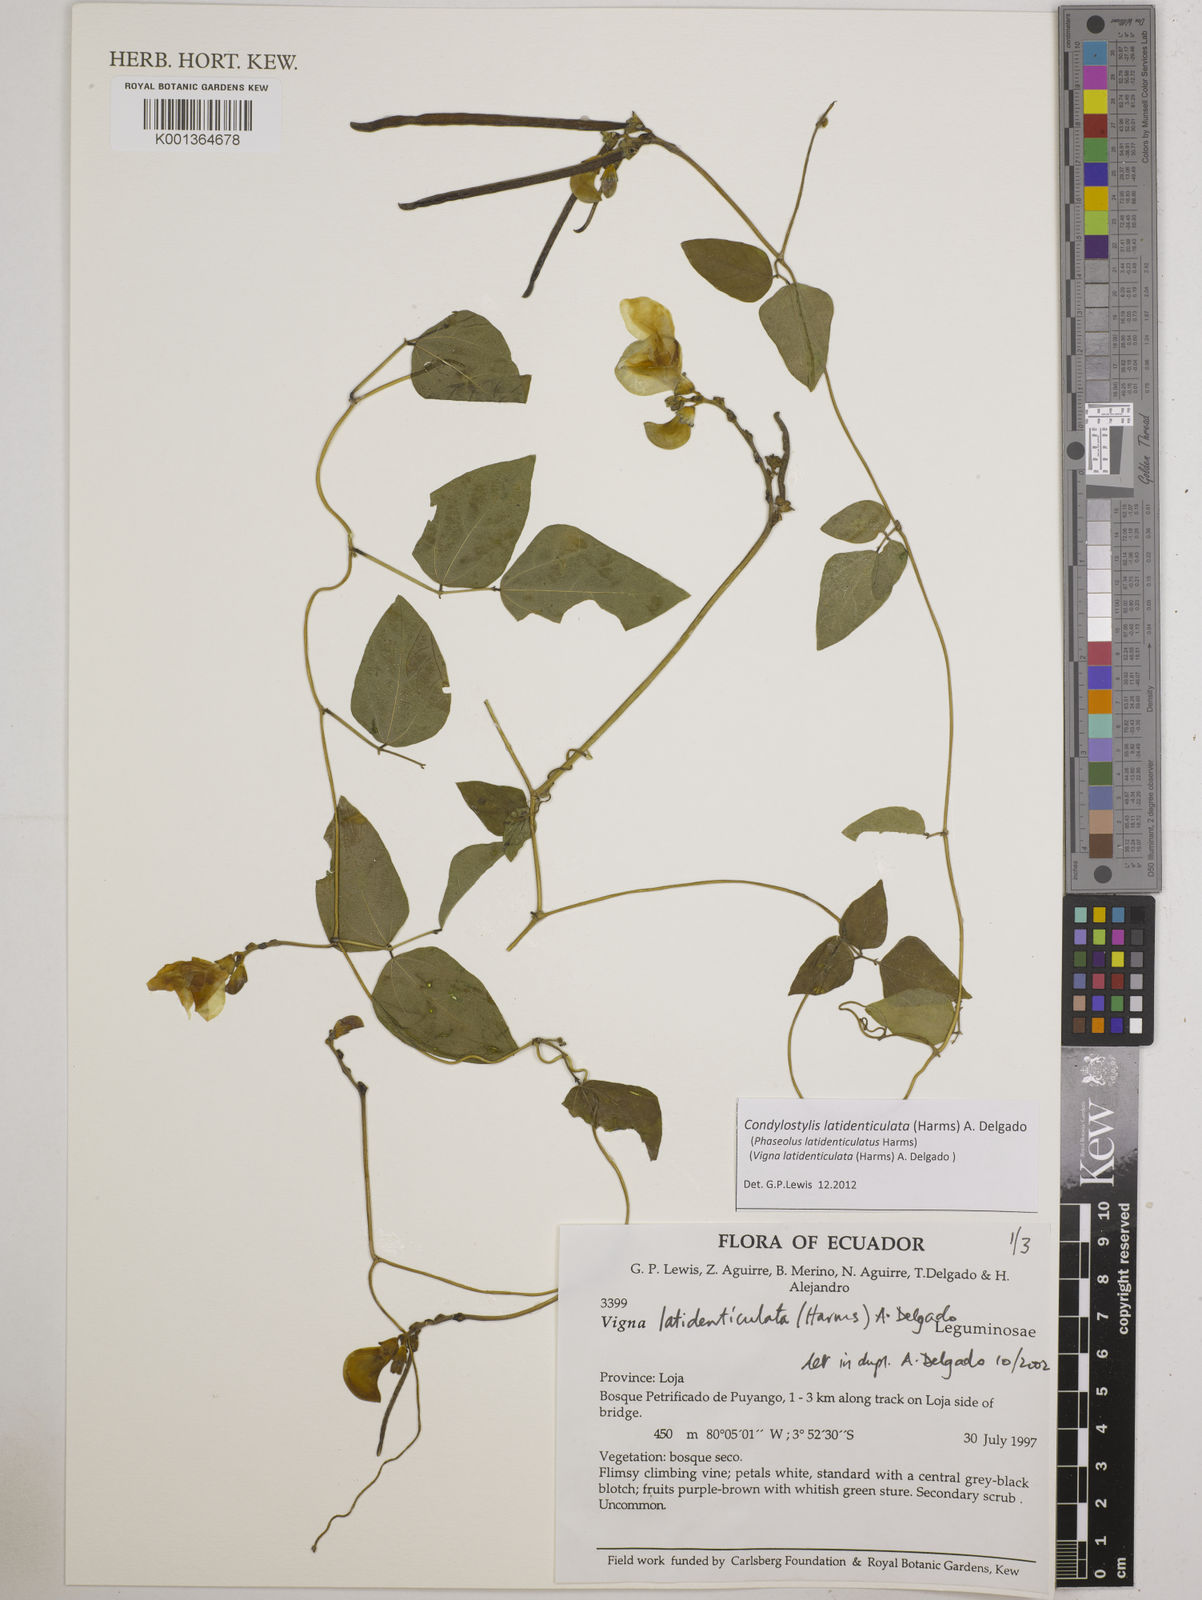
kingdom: Plantae
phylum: Tracheophyta
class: Magnoliopsida
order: Fabales
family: Fabaceae
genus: Condylostylis
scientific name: Condylostylis latidenticulata
